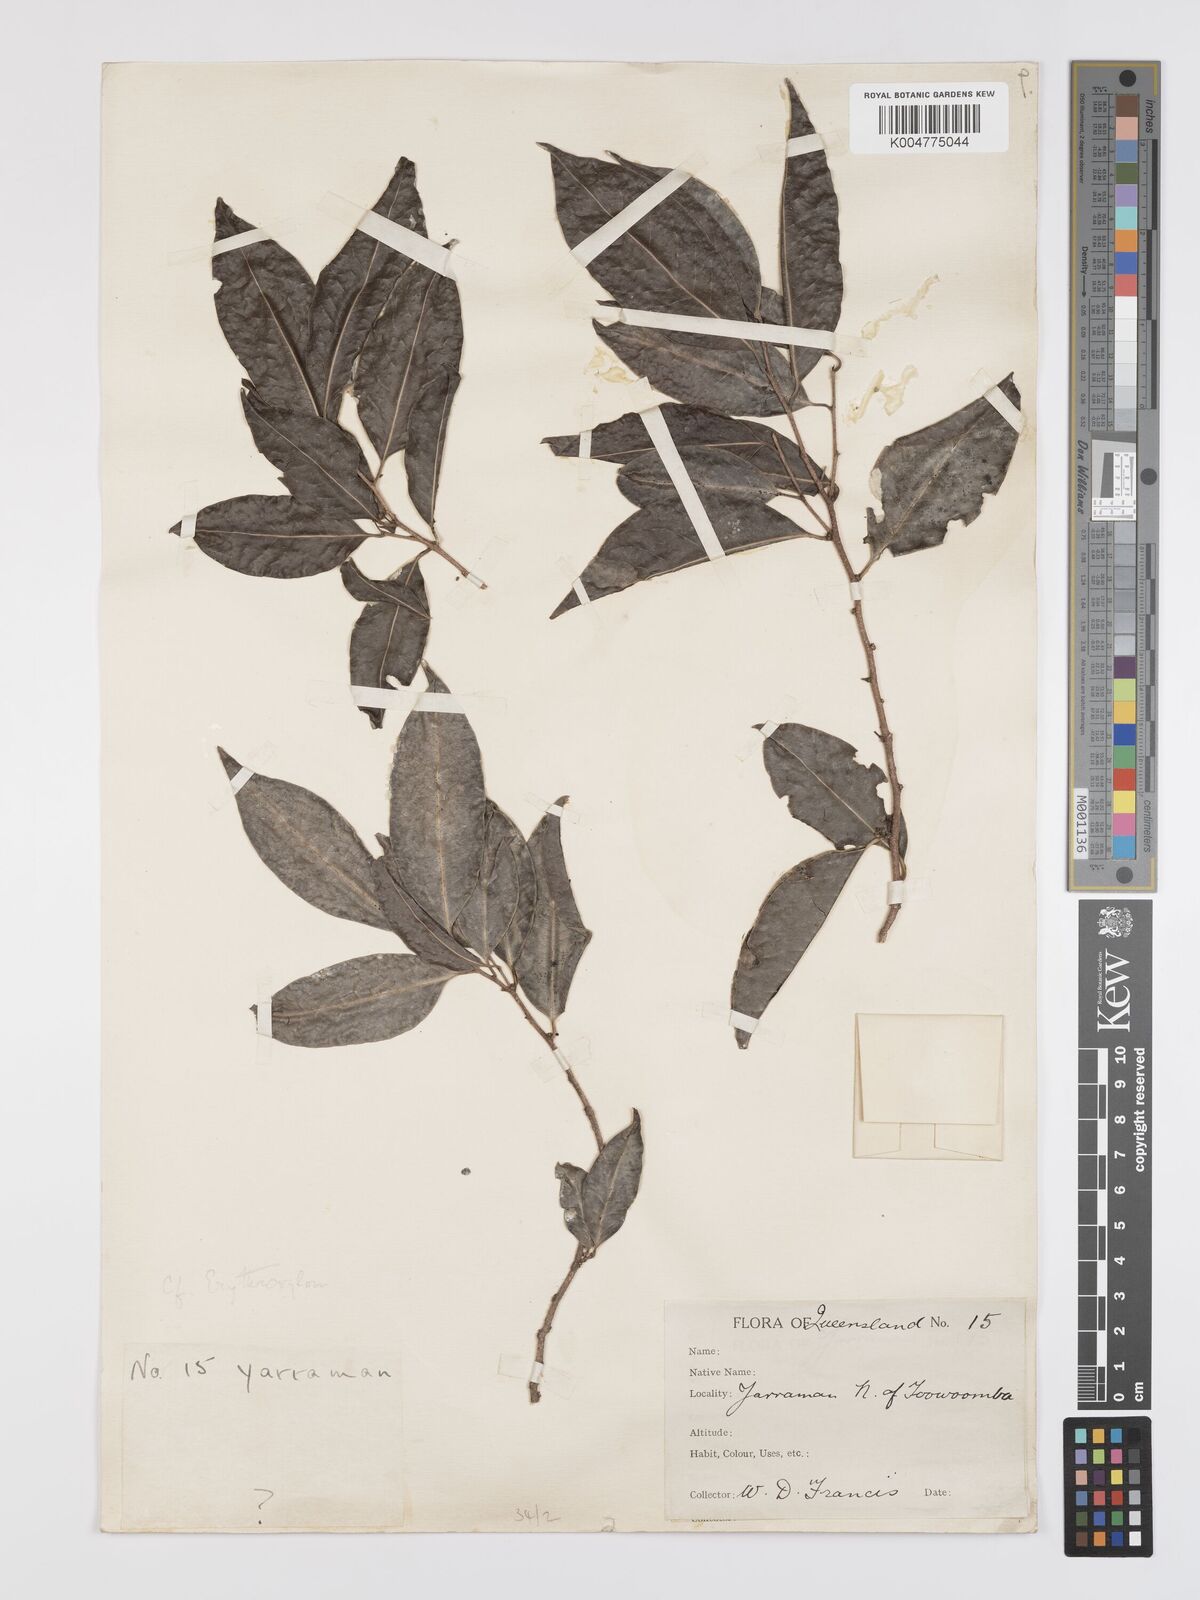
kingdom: Plantae
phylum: Tracheophyta
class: Magnoliopsida
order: Malpighiales
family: Erythroxylaceae
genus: Erythroxylum
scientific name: Erythroxylum
